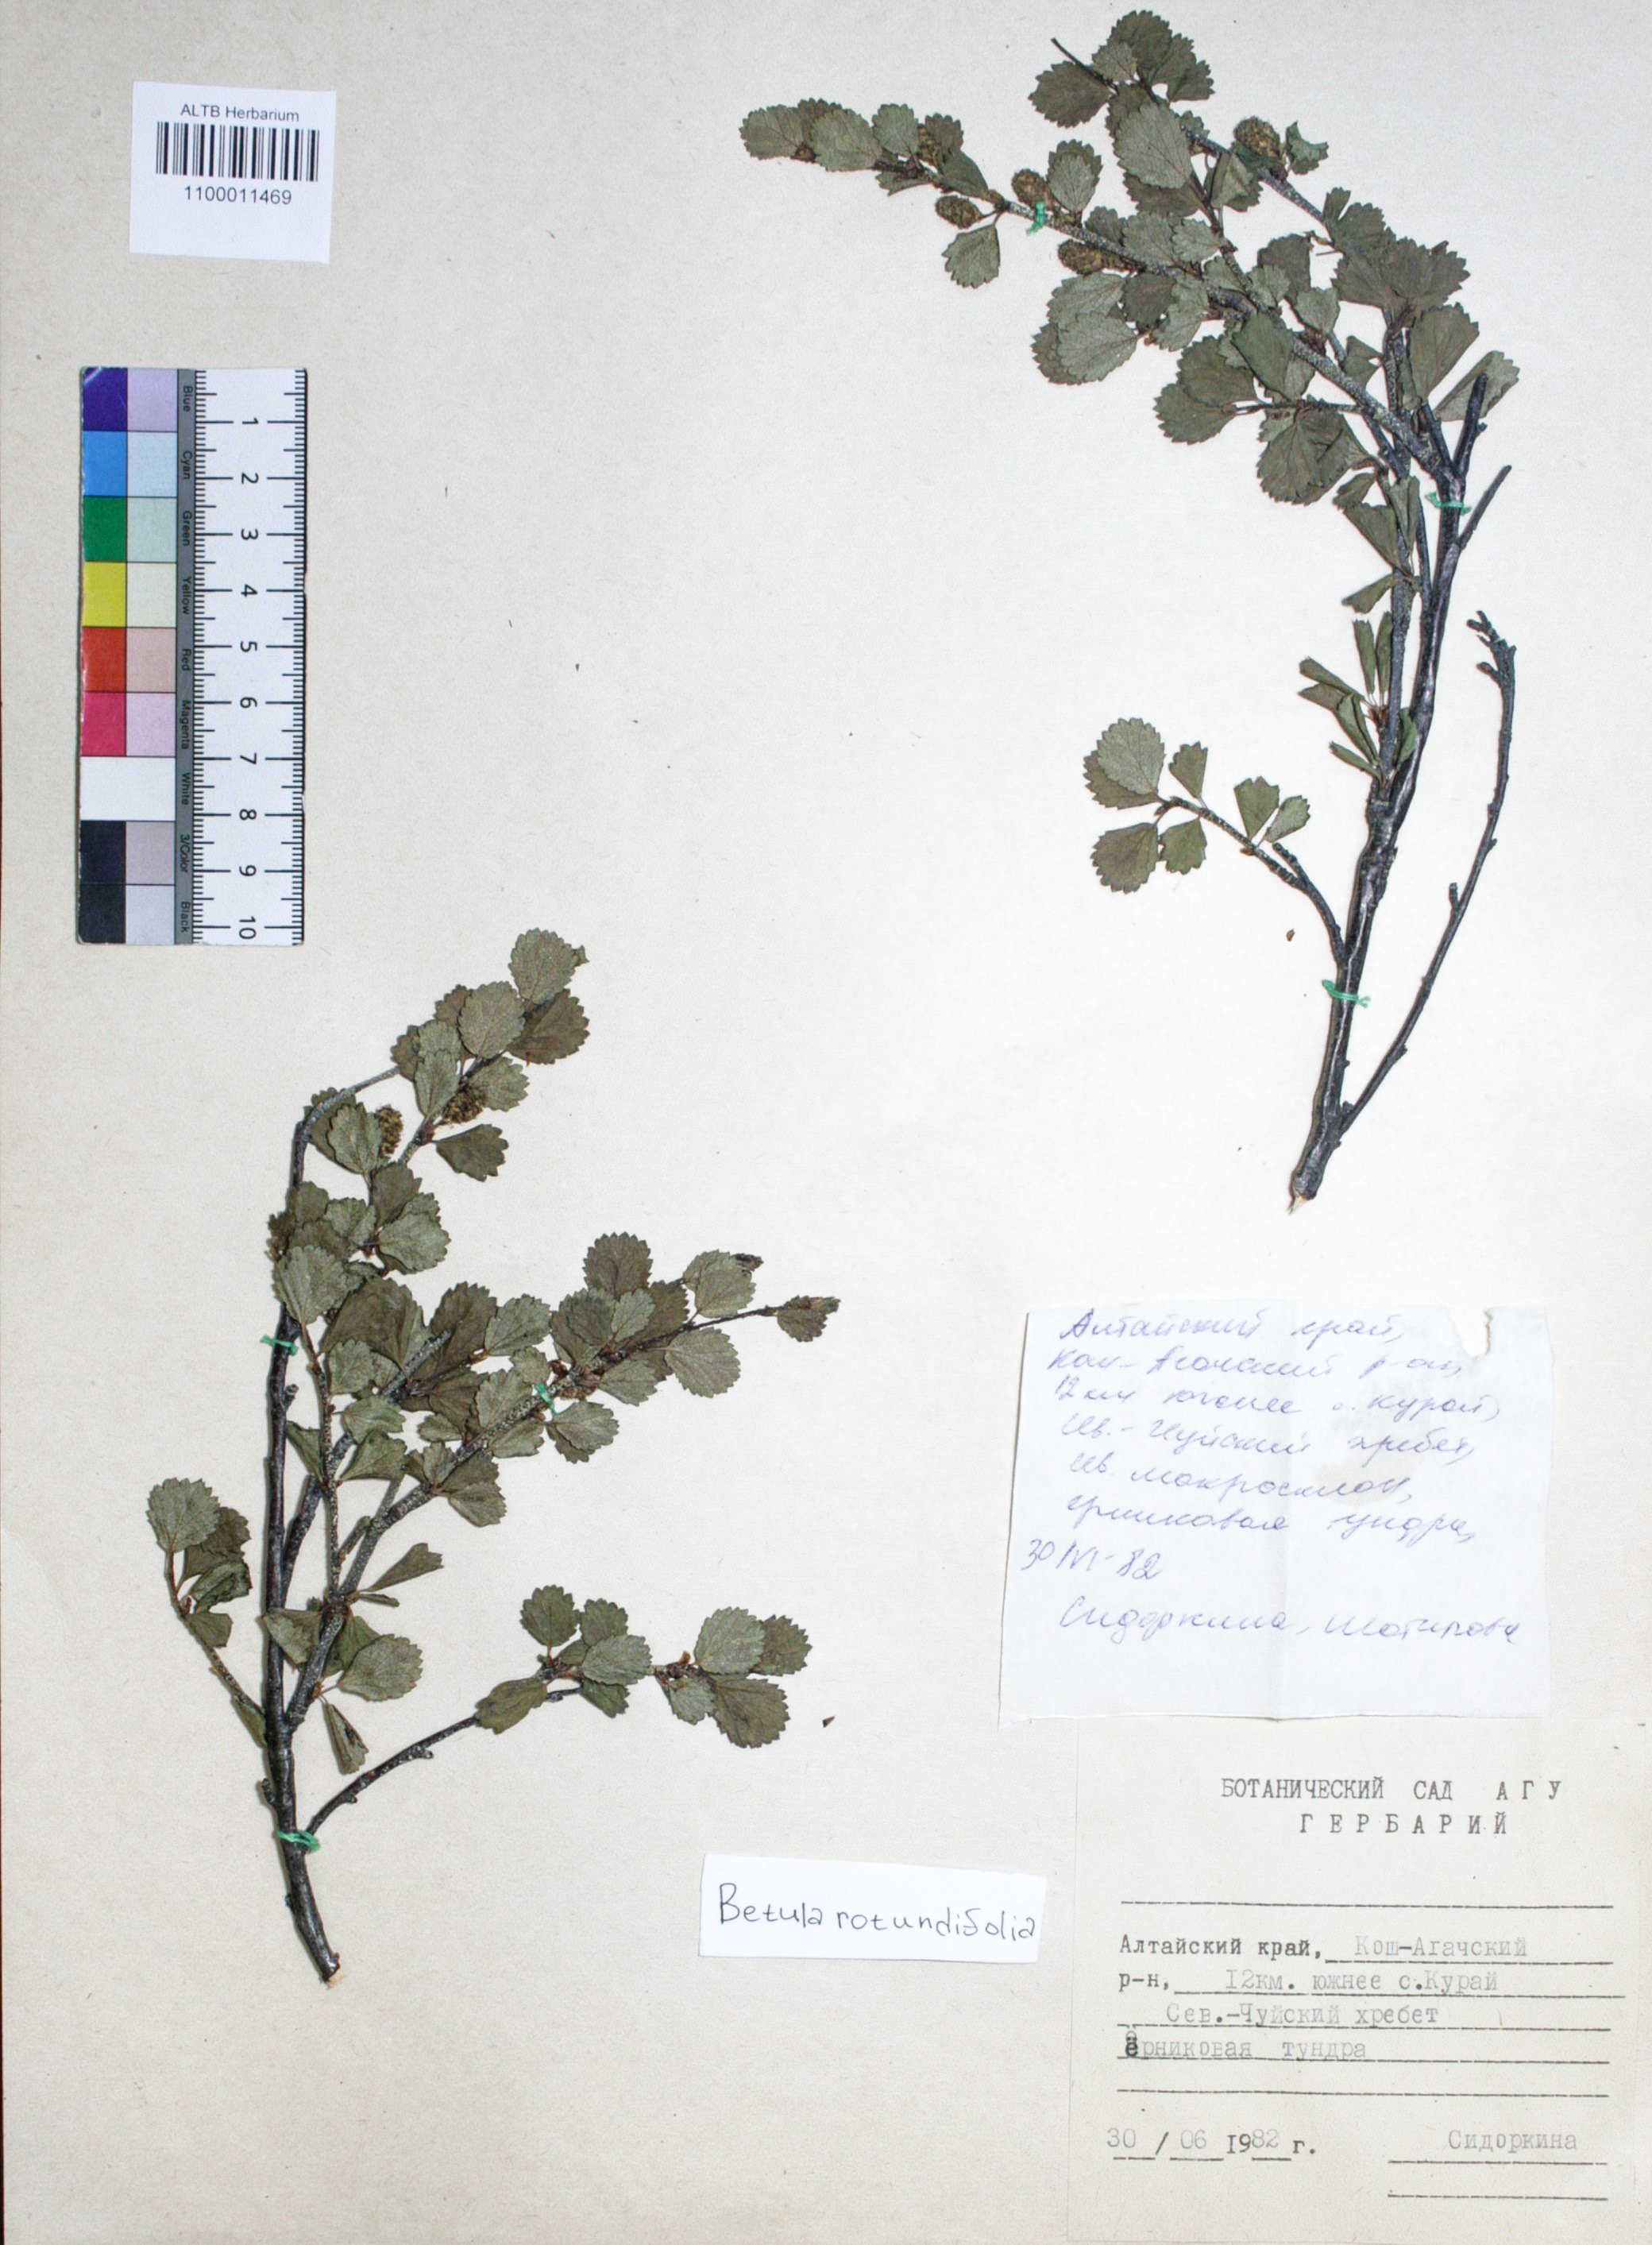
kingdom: Plantae
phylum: Tracheophyta
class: Magnoliopsida
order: Fagales
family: Betulaceae
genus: Betula
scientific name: Betula glandulosa
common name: Dwarf birch
